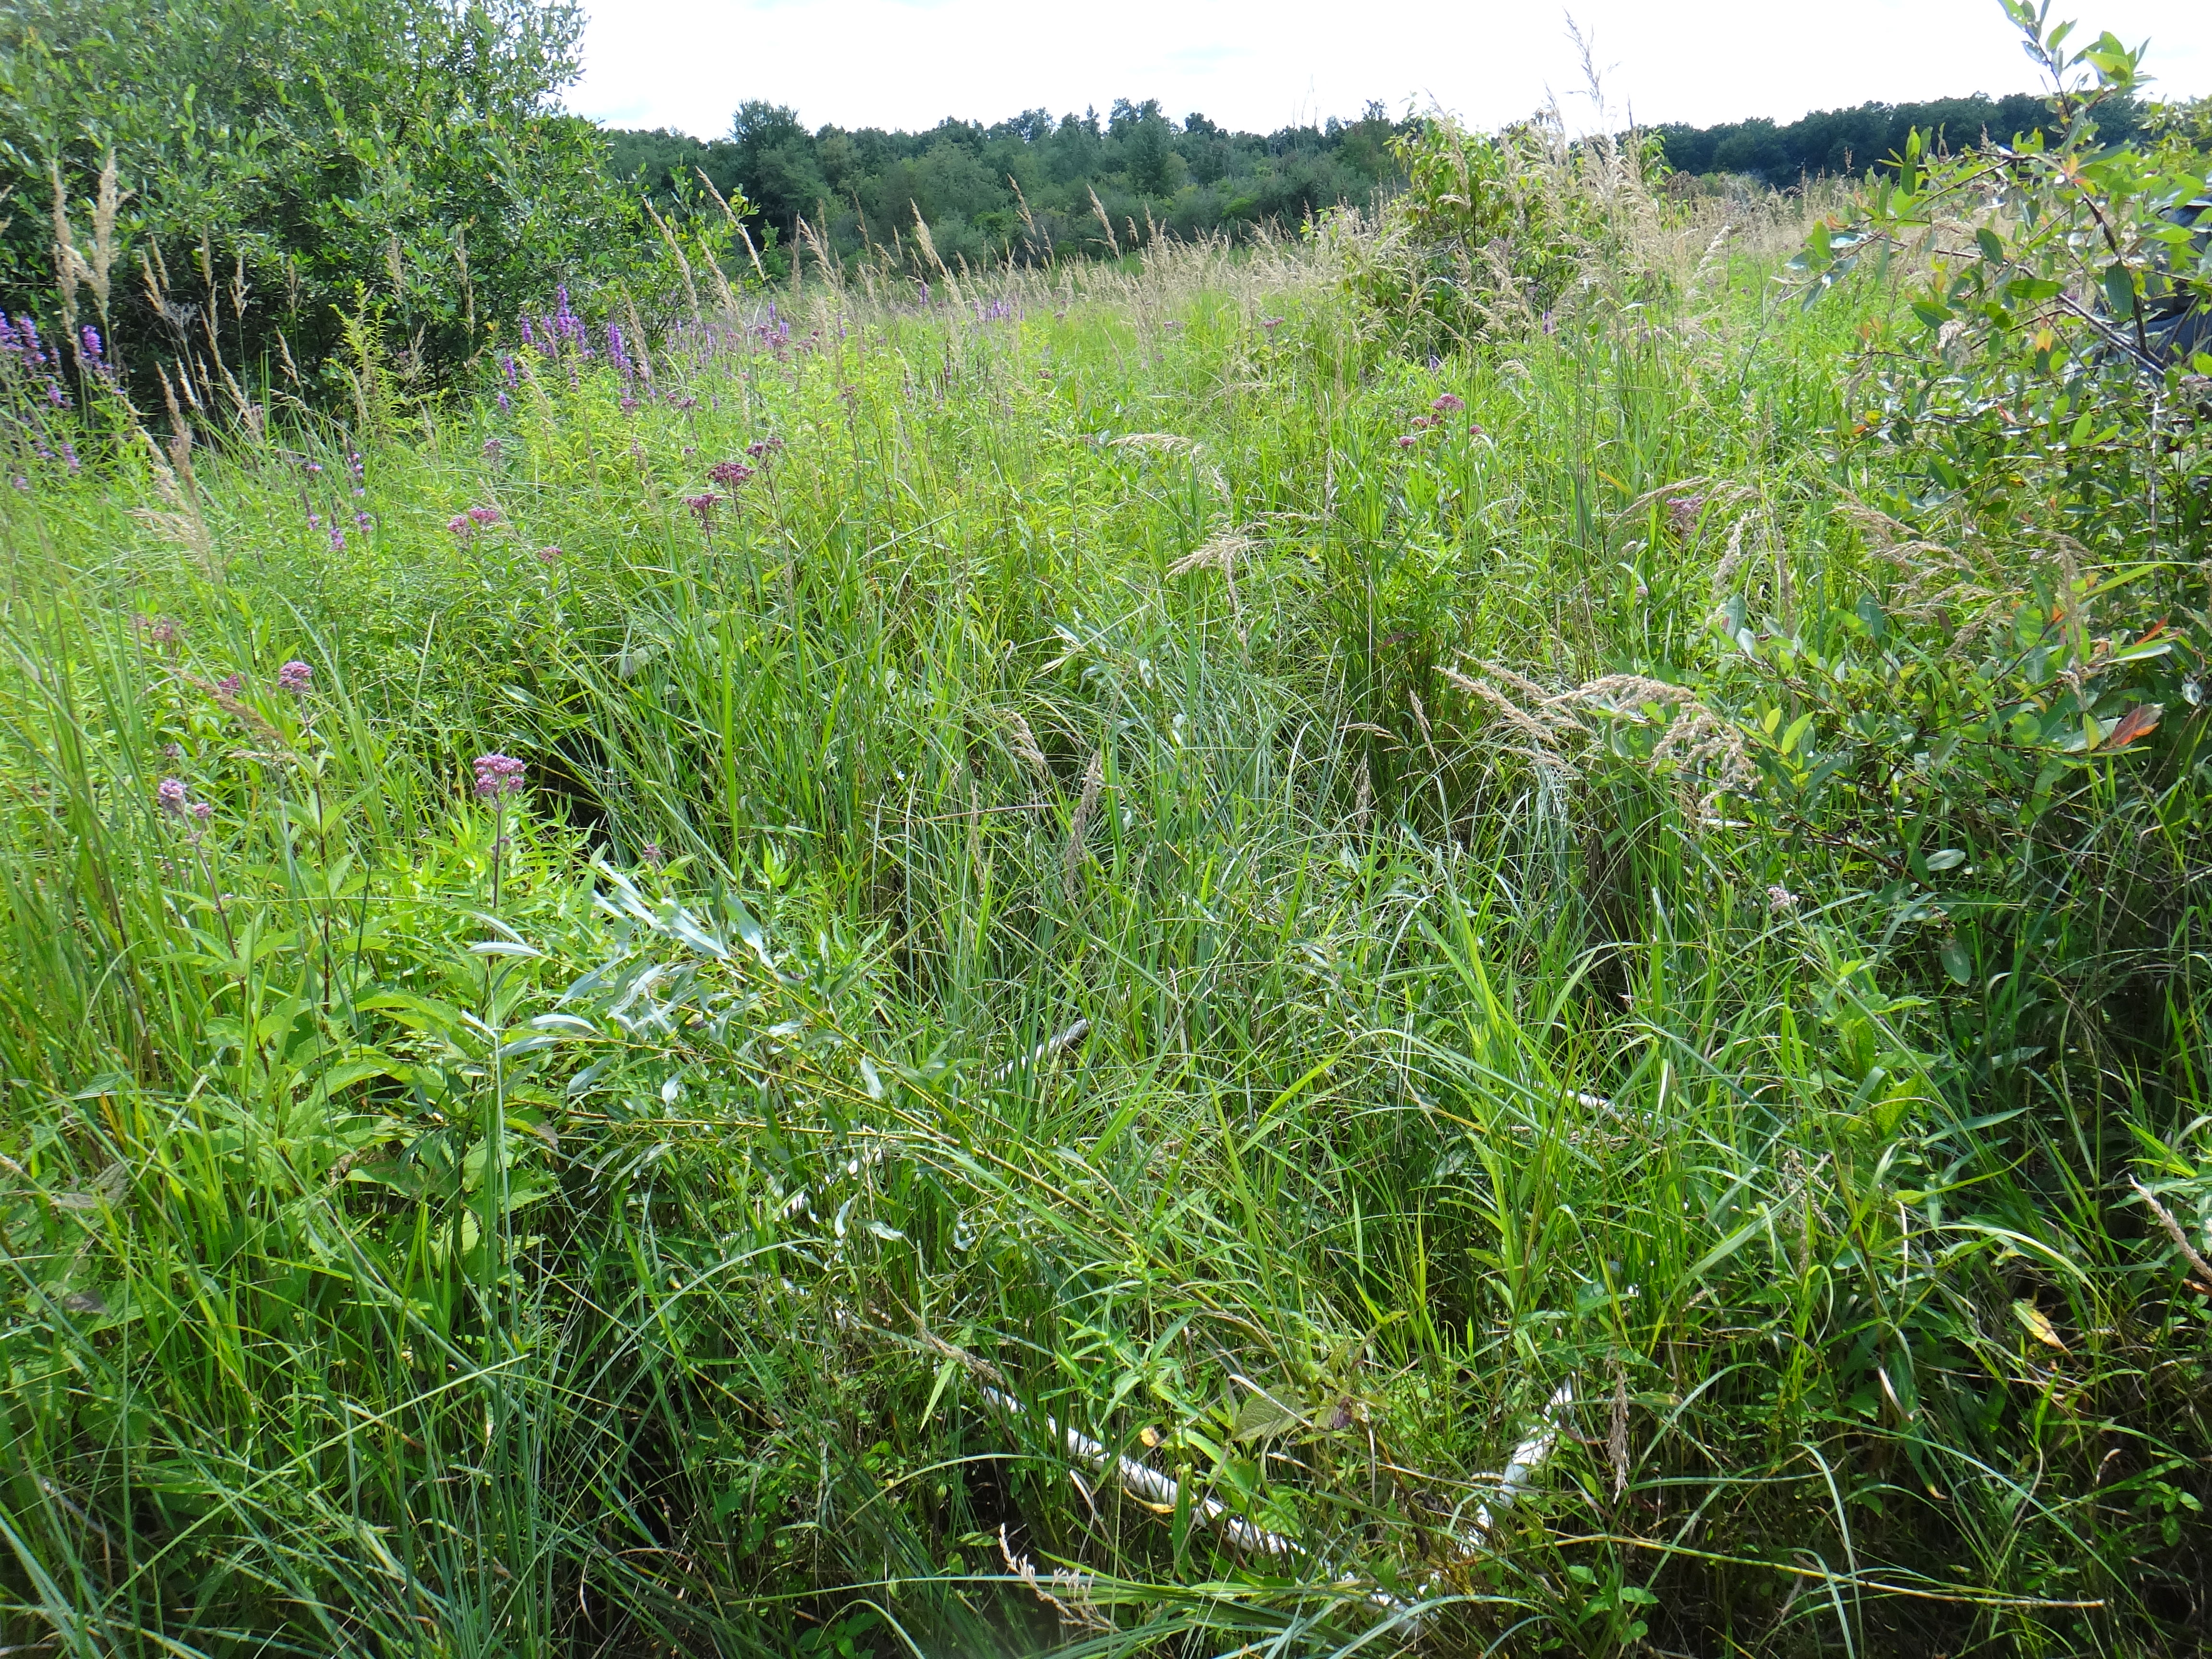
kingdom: Plantae
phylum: Tracheophyta
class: Magnoliopsida
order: Ericales
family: Primulaceae
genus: Lysimachia
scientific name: Lysimachia quadriflora
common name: Four-flowered loosestrife
